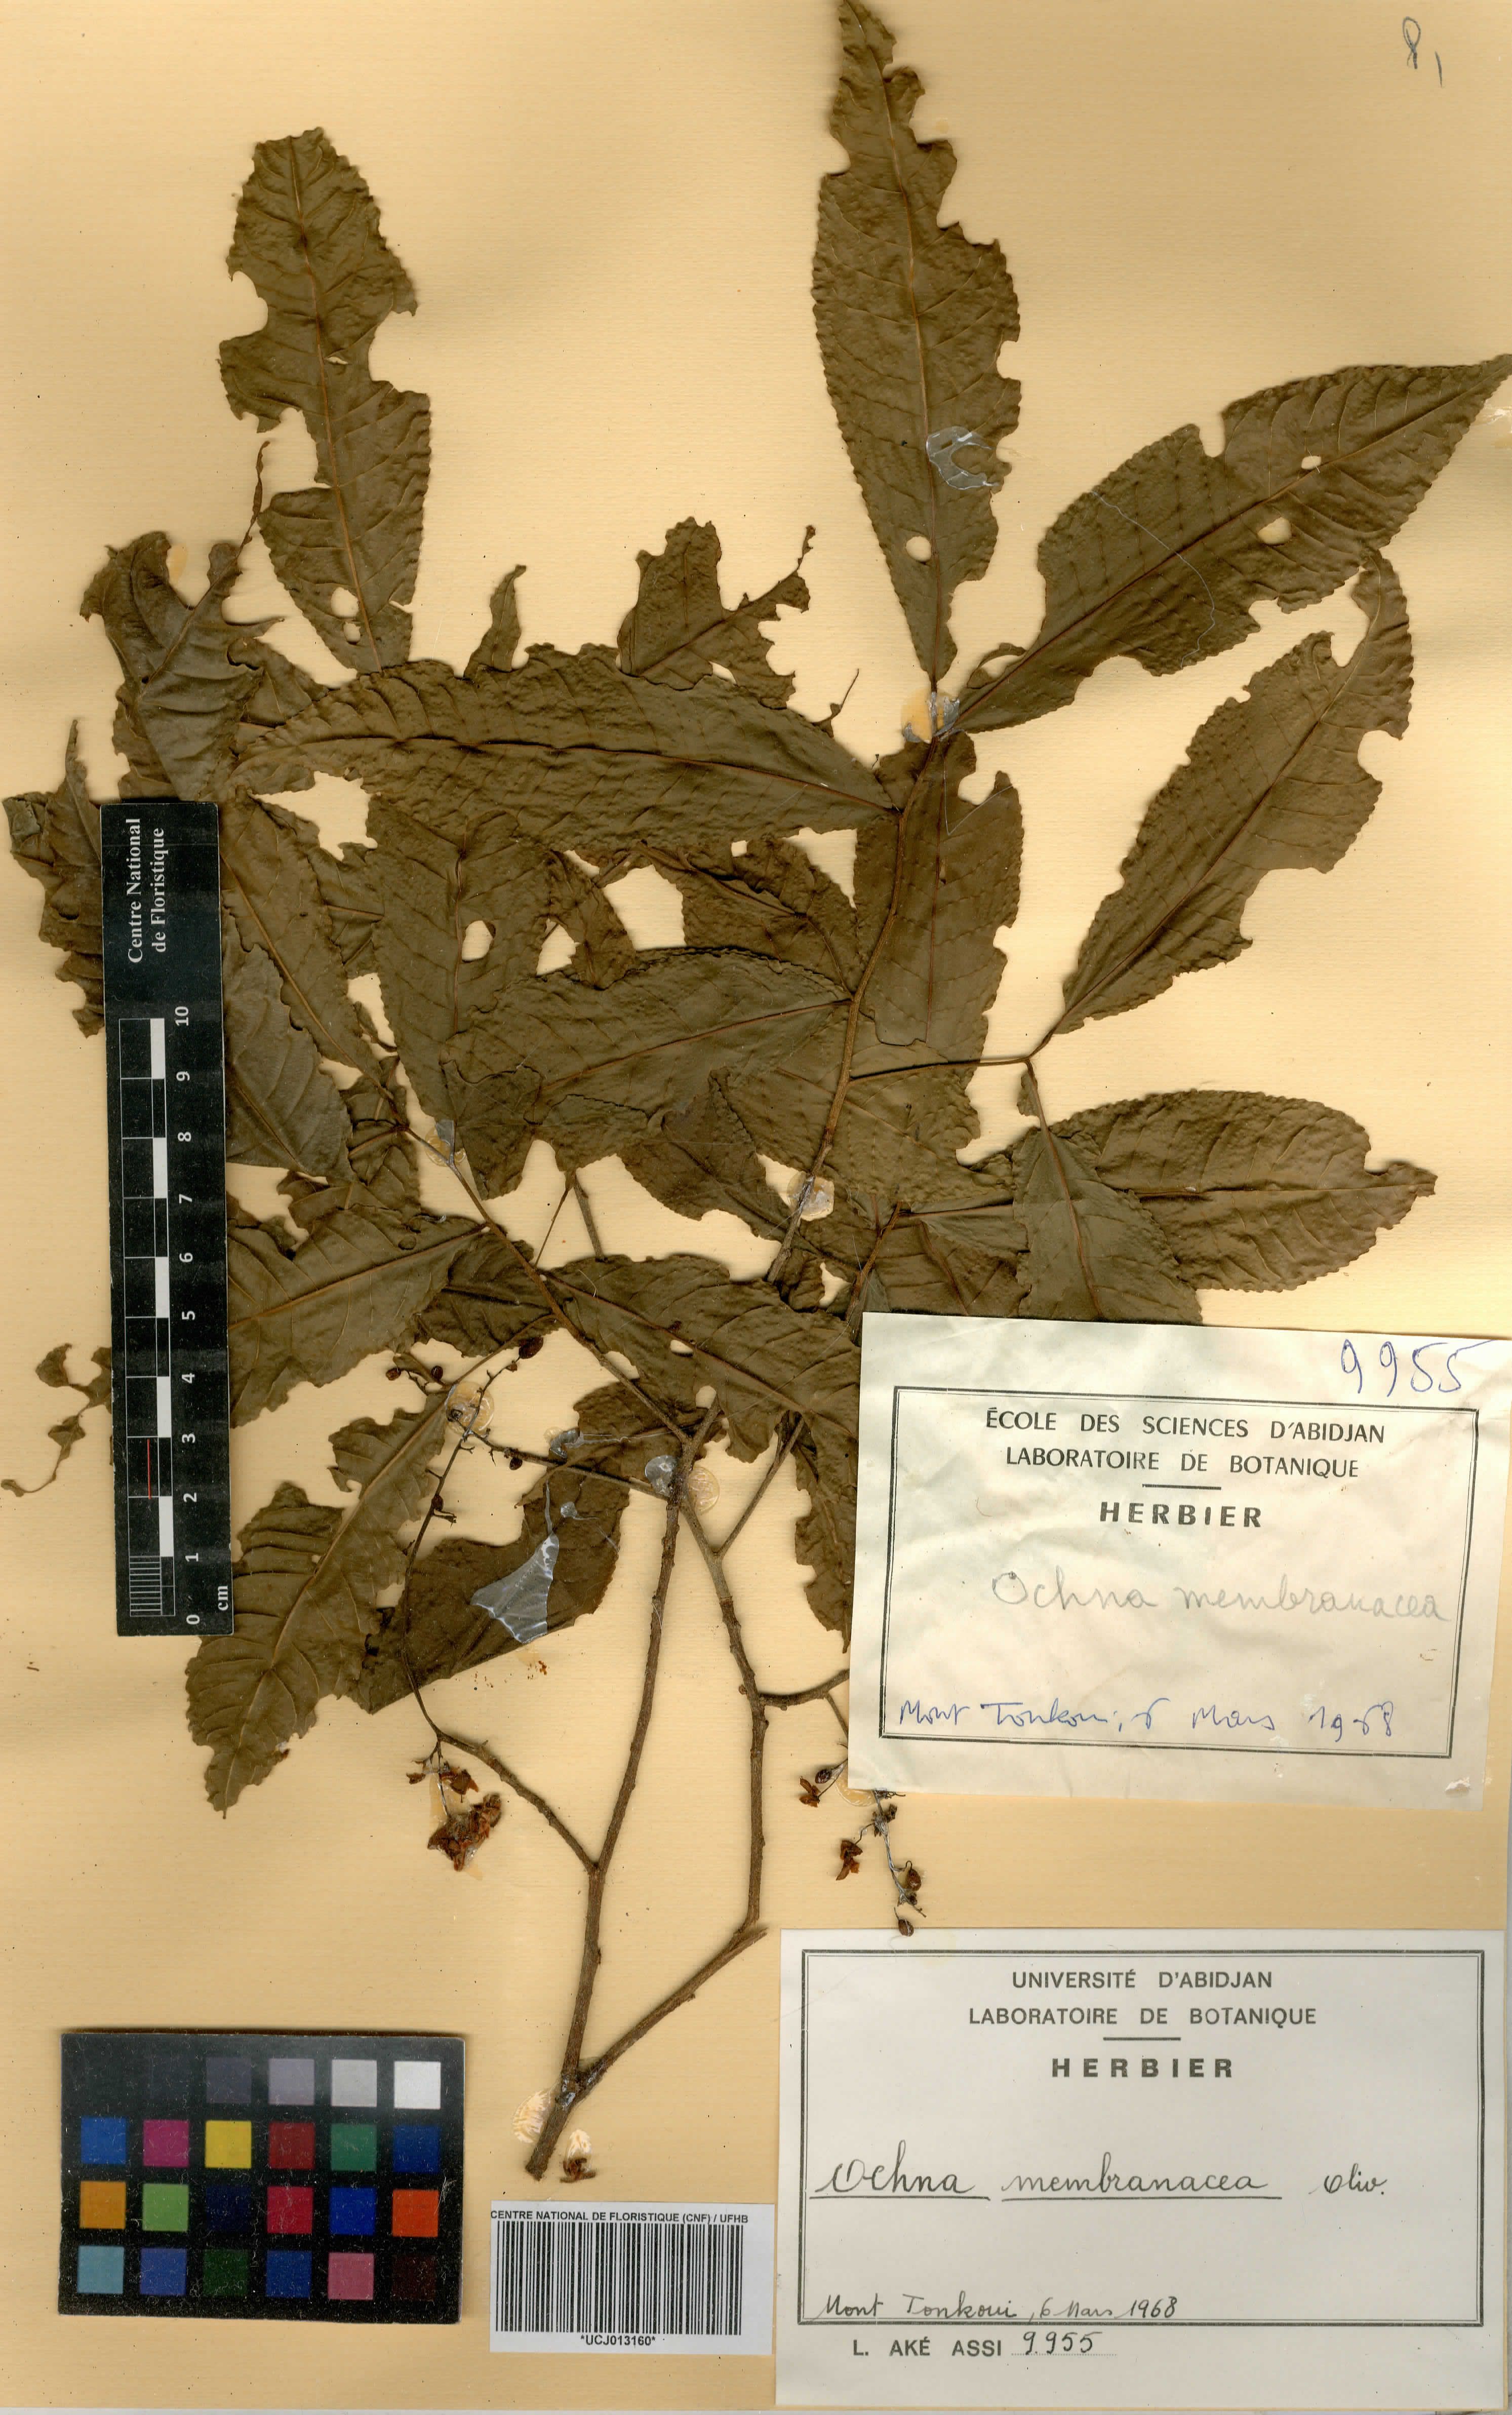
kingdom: Plantae
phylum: Tracheophyta
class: Magnoliopsida
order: Malpighiales
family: Ochnaceae
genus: Ochna
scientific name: Ochna membranacea
